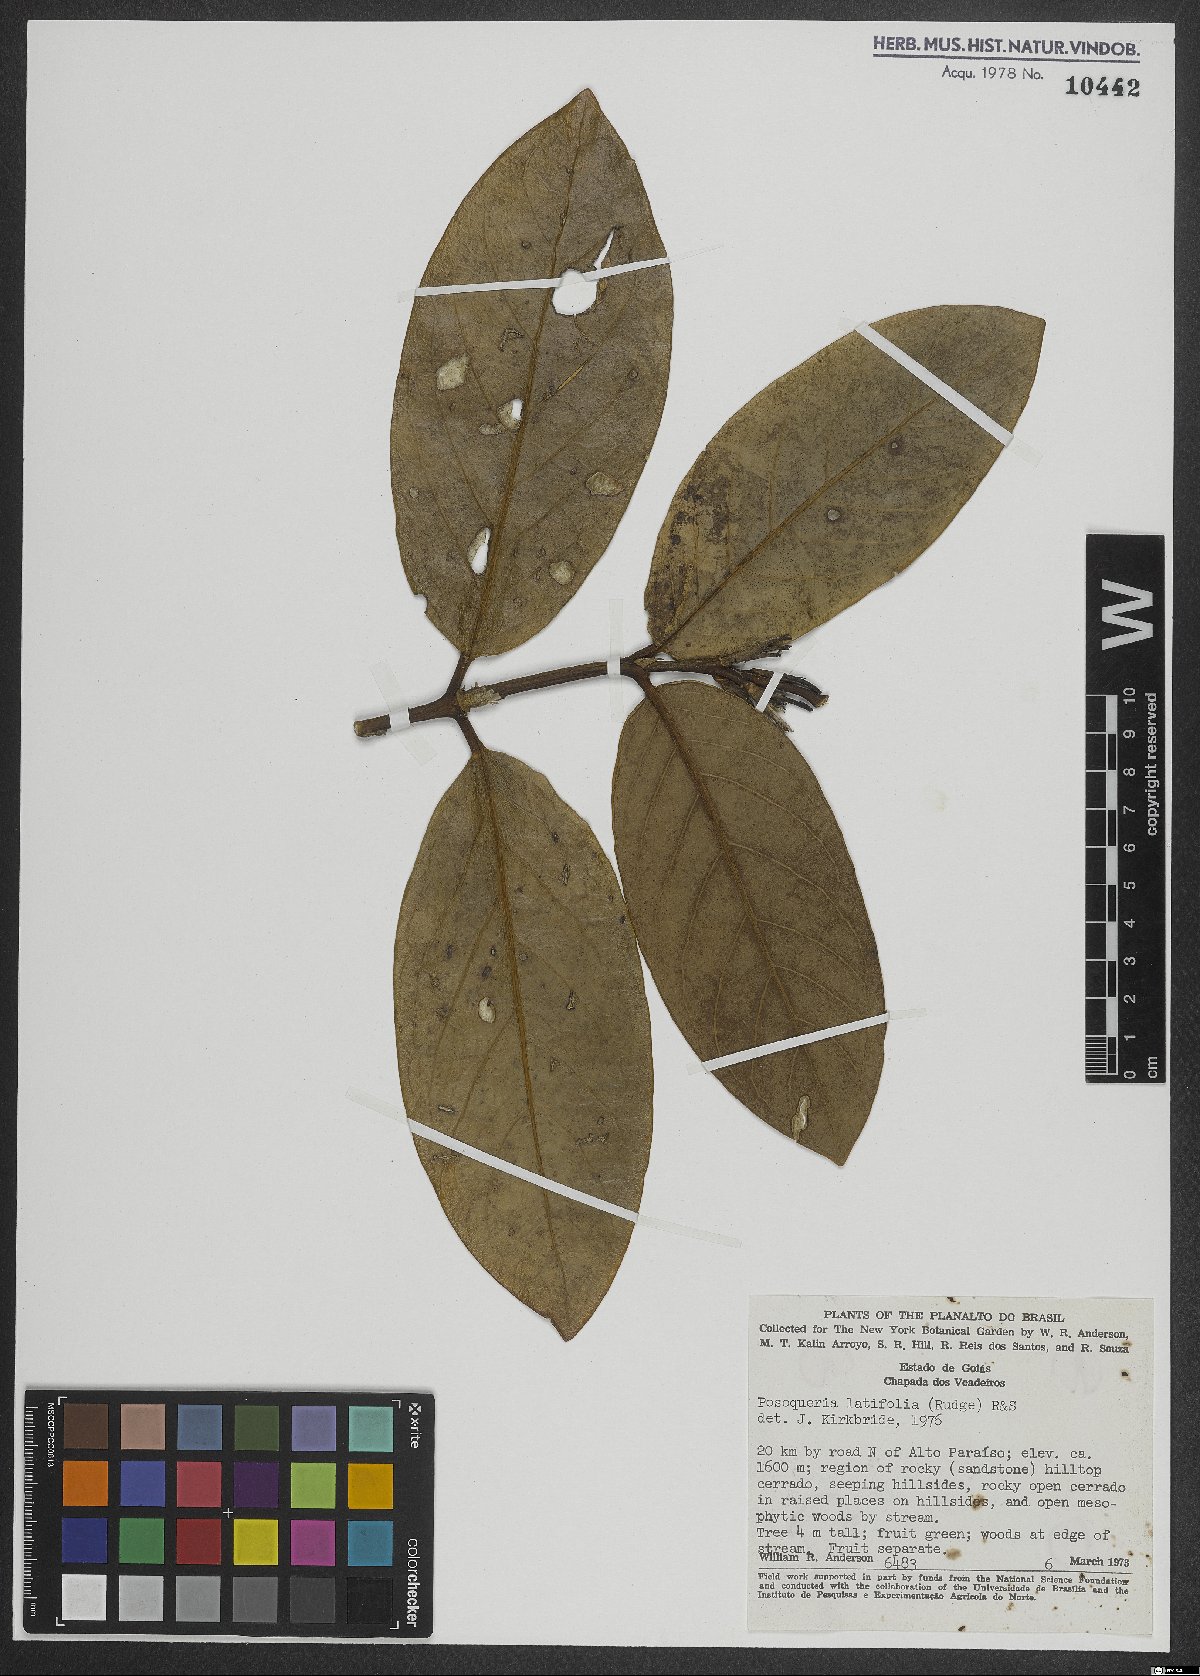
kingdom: Plantae
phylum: Tracheophyta
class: Magnoliopsida
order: Gentianales
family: Rubiaceae
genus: Posoqueria
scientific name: Posoqueria latifolia
